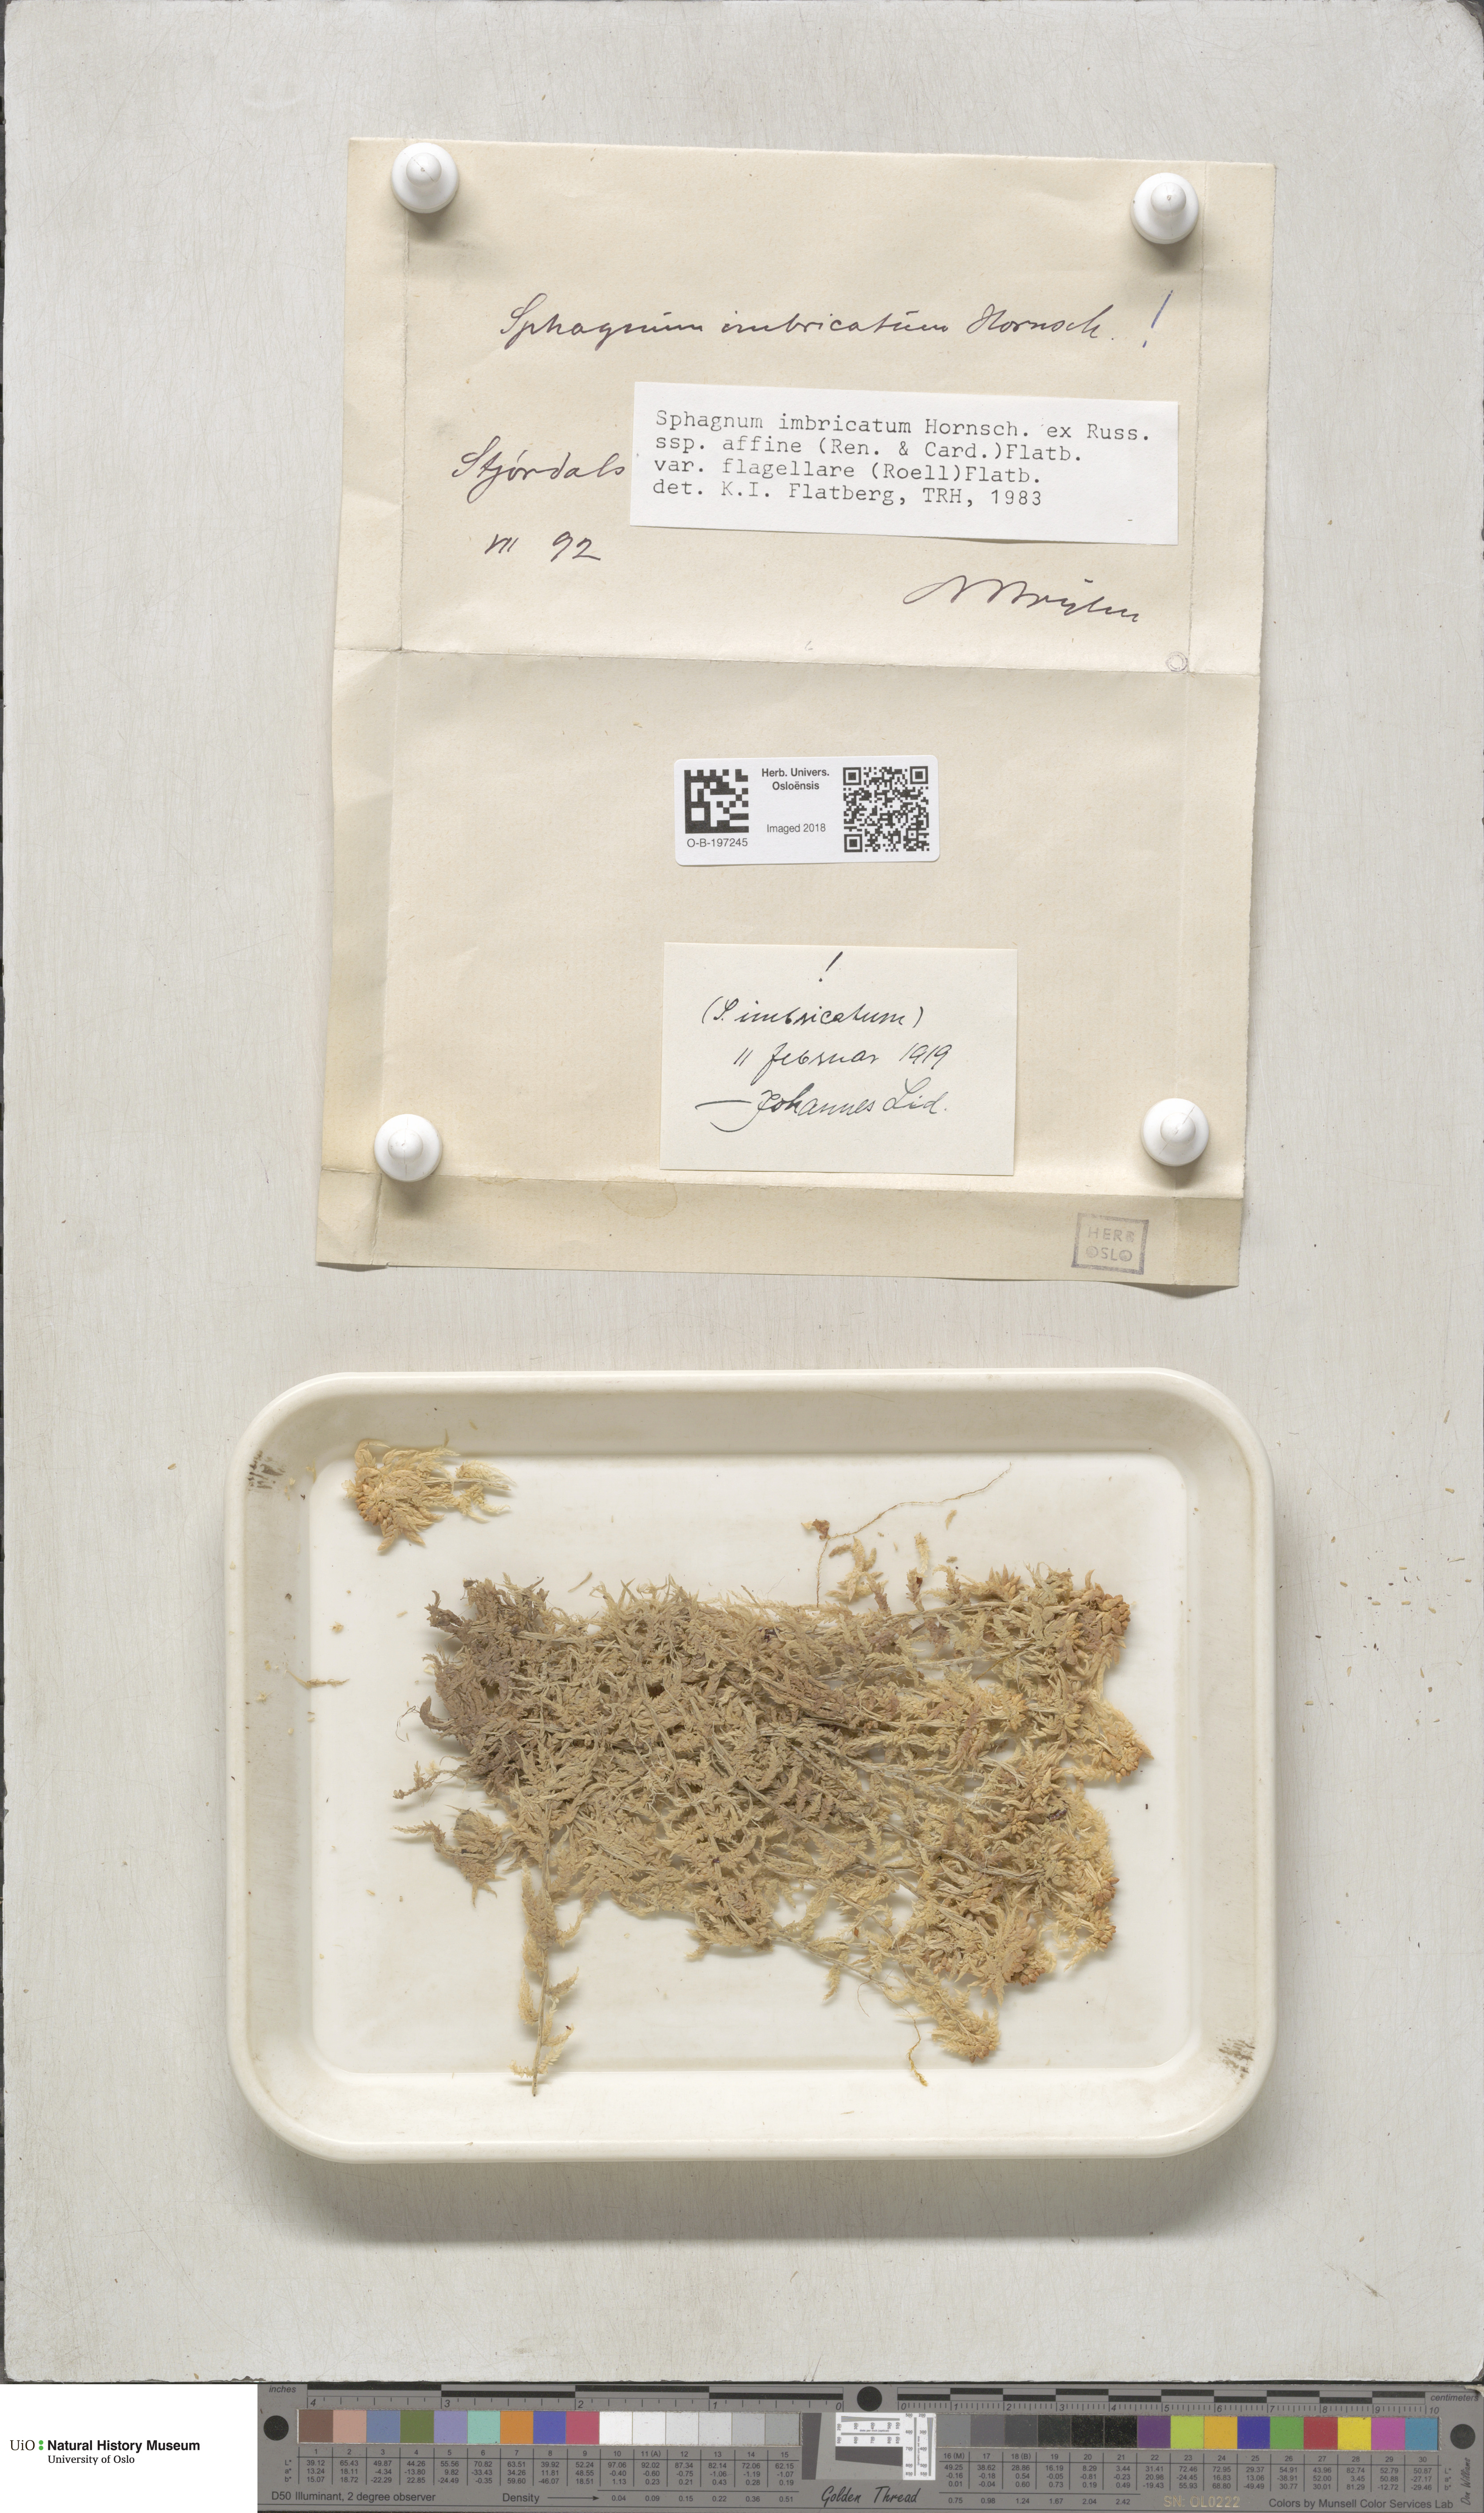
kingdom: Plantae
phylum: Bryophyta
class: Sphagnopsida
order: Sphagnales
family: Sphagnaceae
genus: Sphagnum
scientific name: Sphagnum affine
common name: Imbricate peat moss
